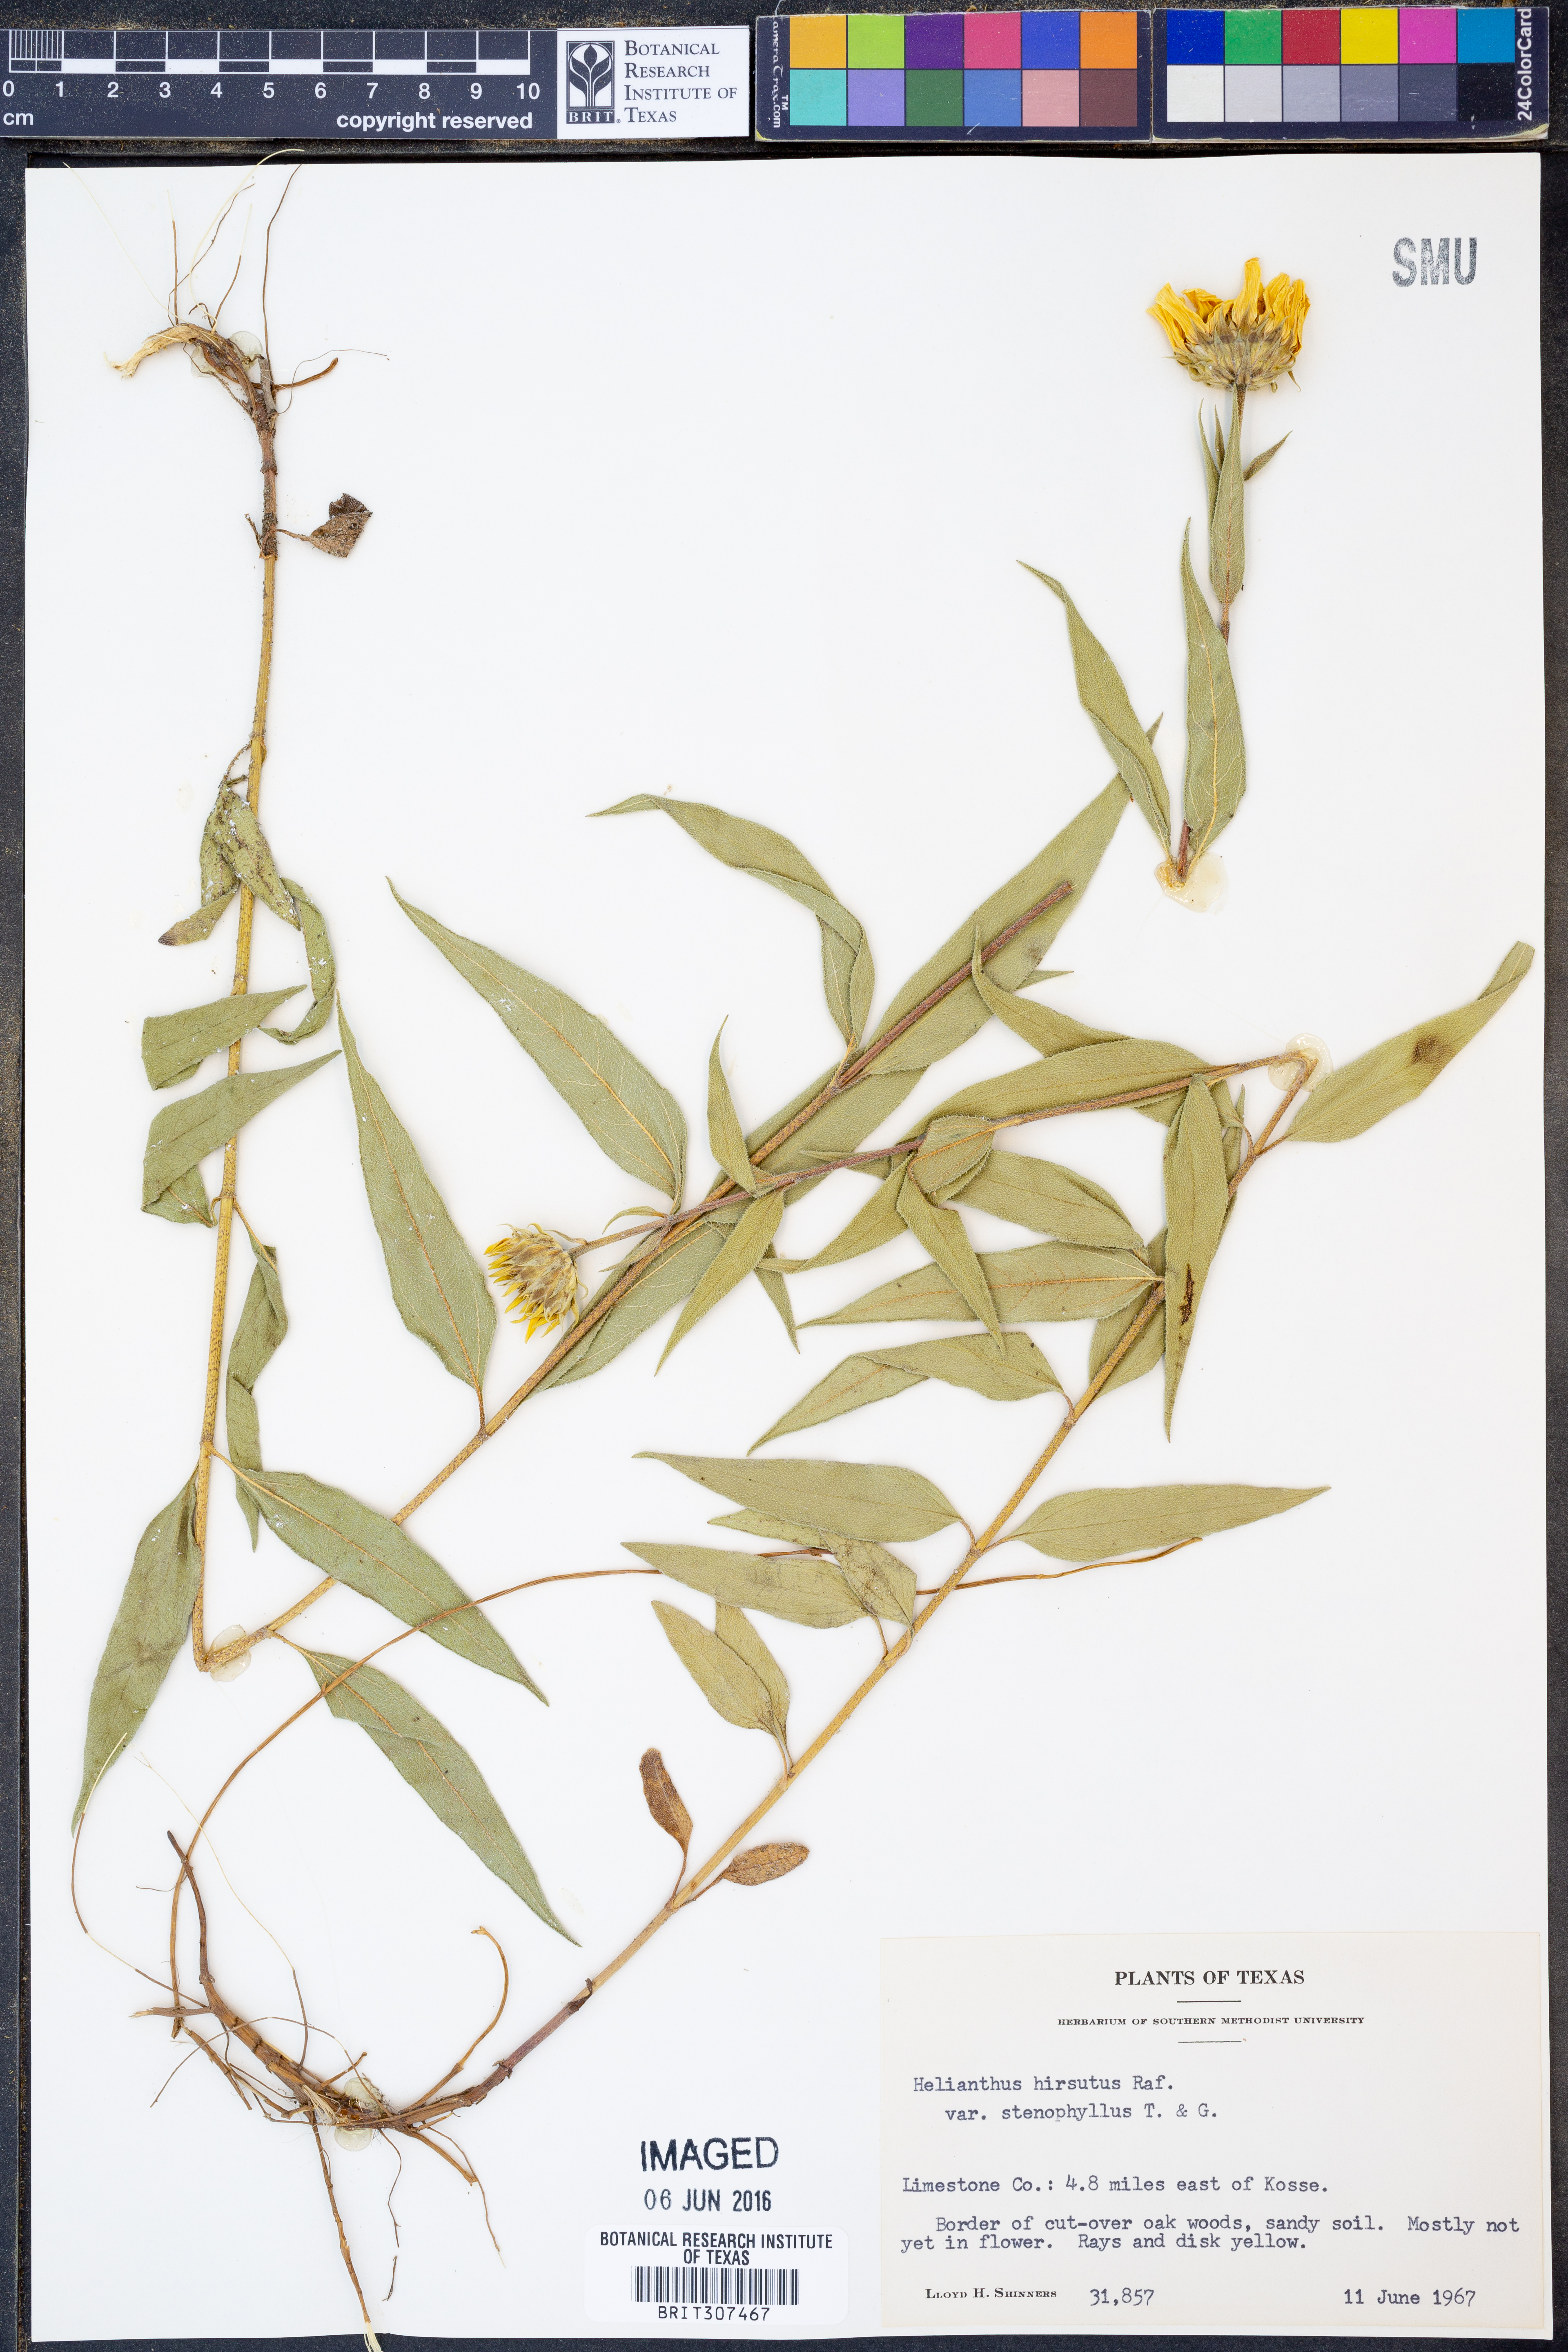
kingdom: Plantae
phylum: Tracheophyta
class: Magnoliopsida
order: Asterales
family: Asteraceae
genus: Helianthus
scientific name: Helianthus hirsutus
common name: Hairy sunflower
